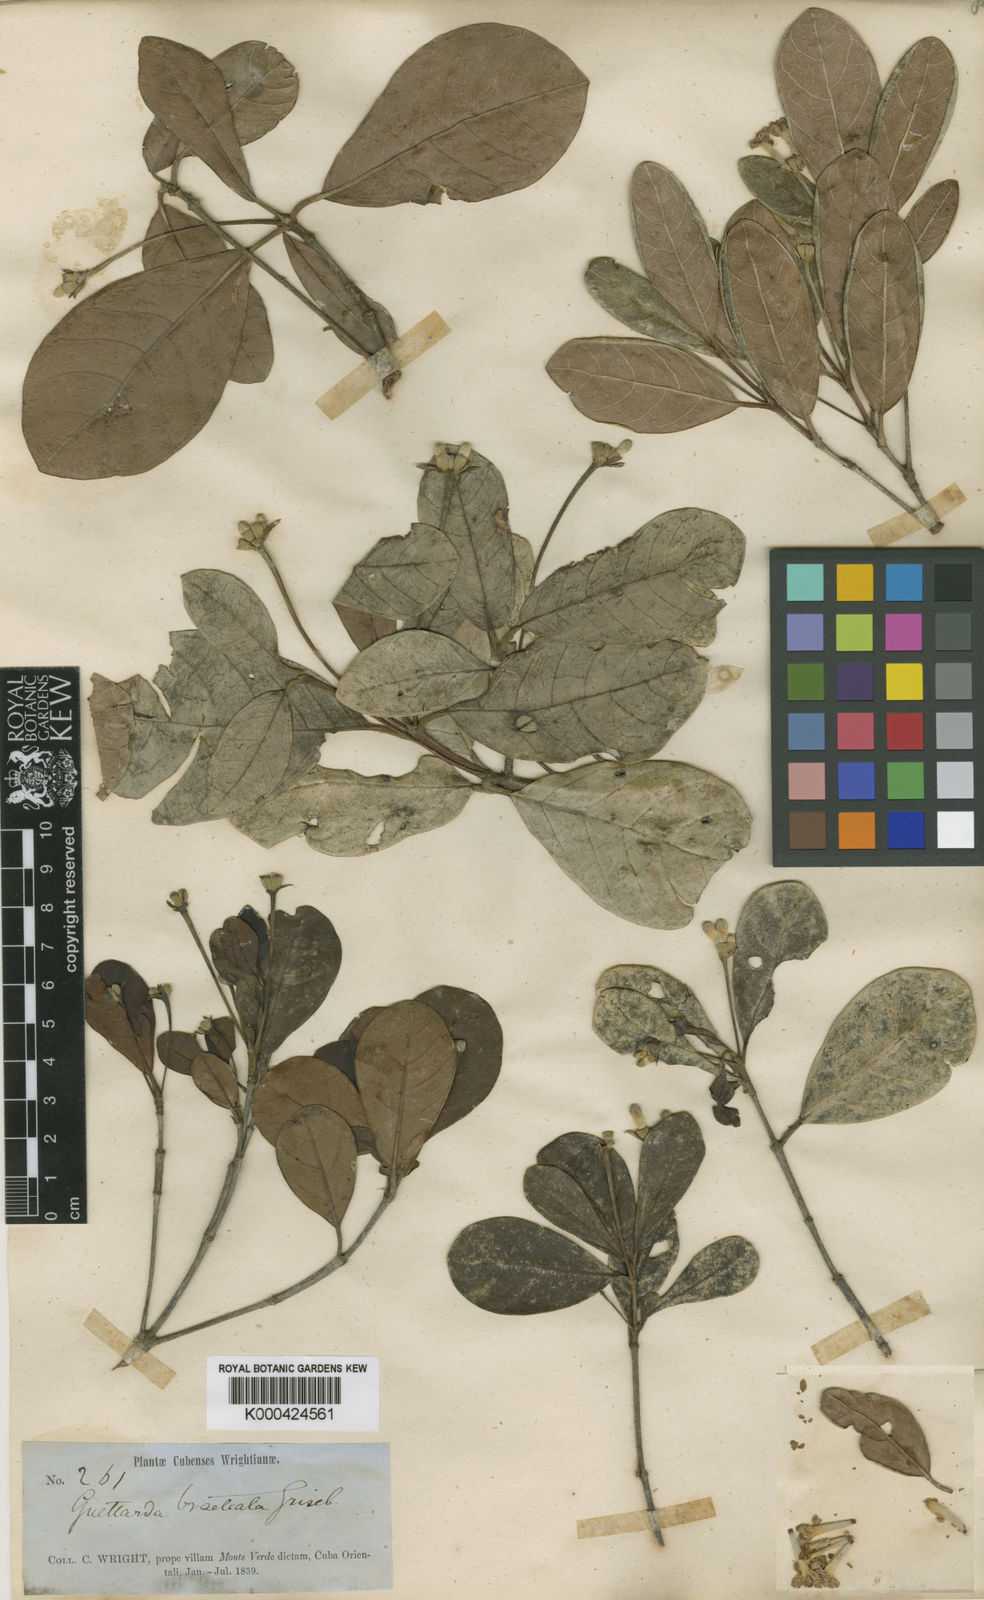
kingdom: Plantae
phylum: Tracheophyta
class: Magnoliopsida
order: Gentianales
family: Rubiaceae
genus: Guettarda
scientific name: Guettarda valenzuelana
